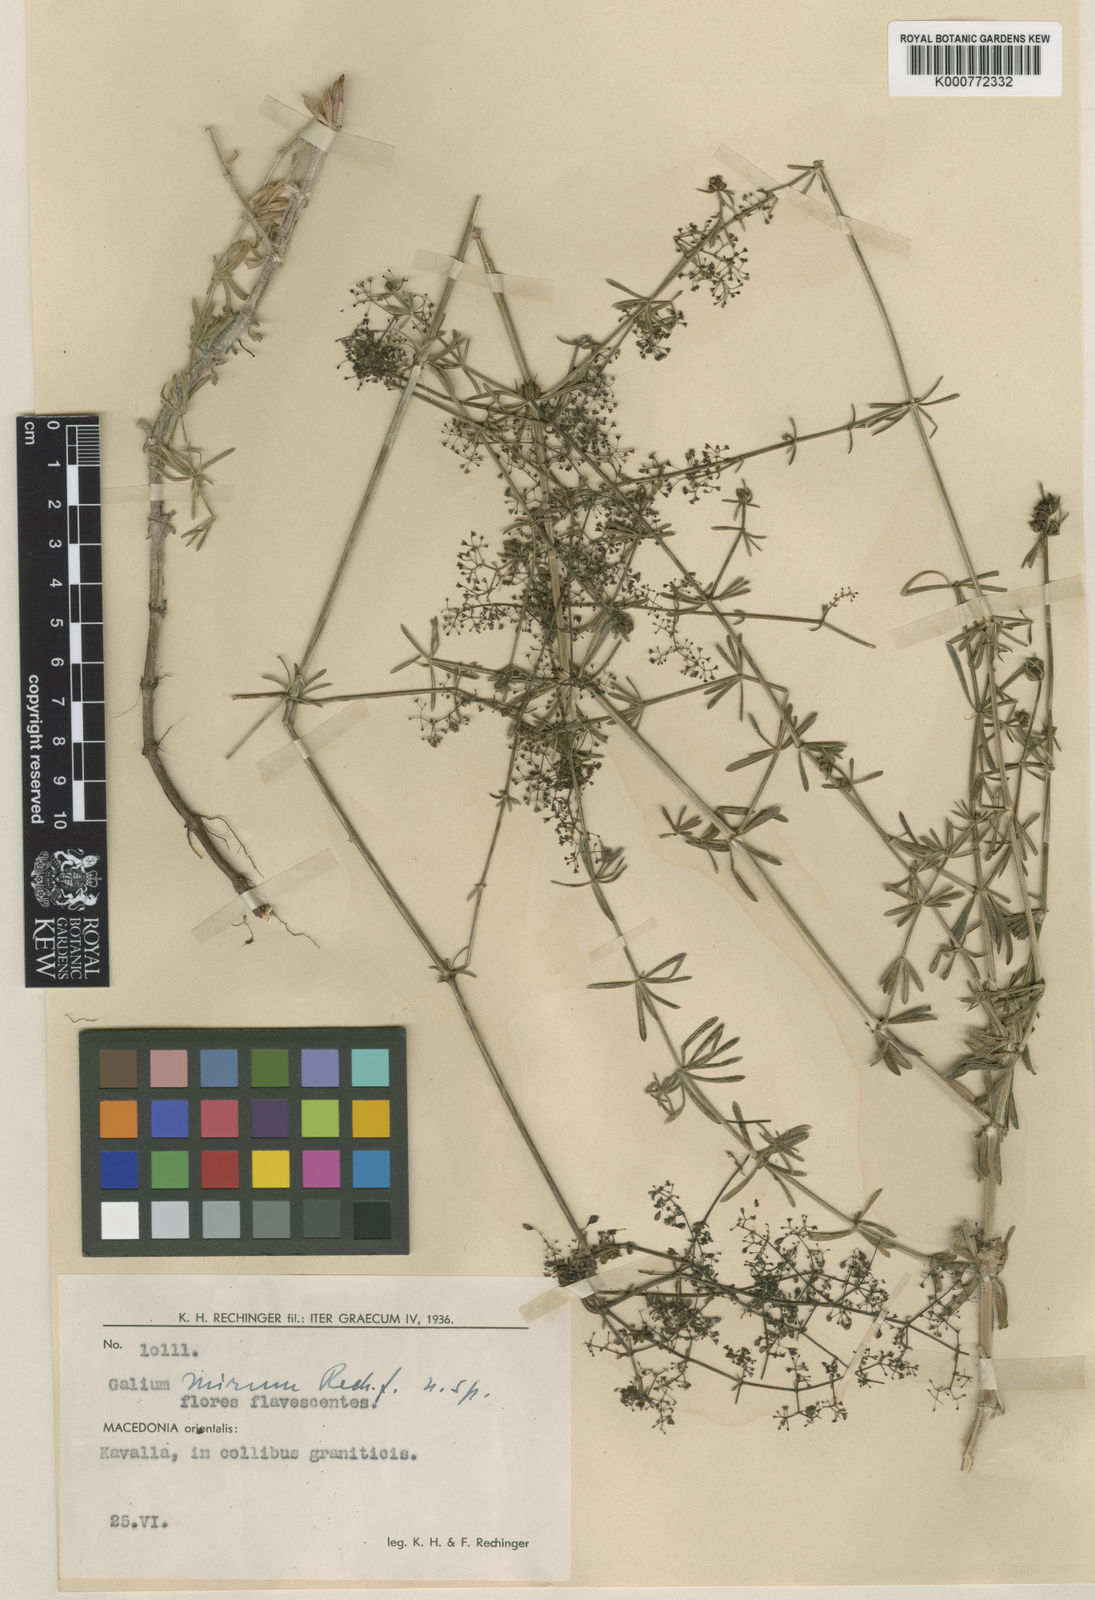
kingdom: Plantae
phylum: Tracheophyta
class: Magnoliopsida
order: Gentianales
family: Rubiaceae
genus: Galium
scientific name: Galium mirum
